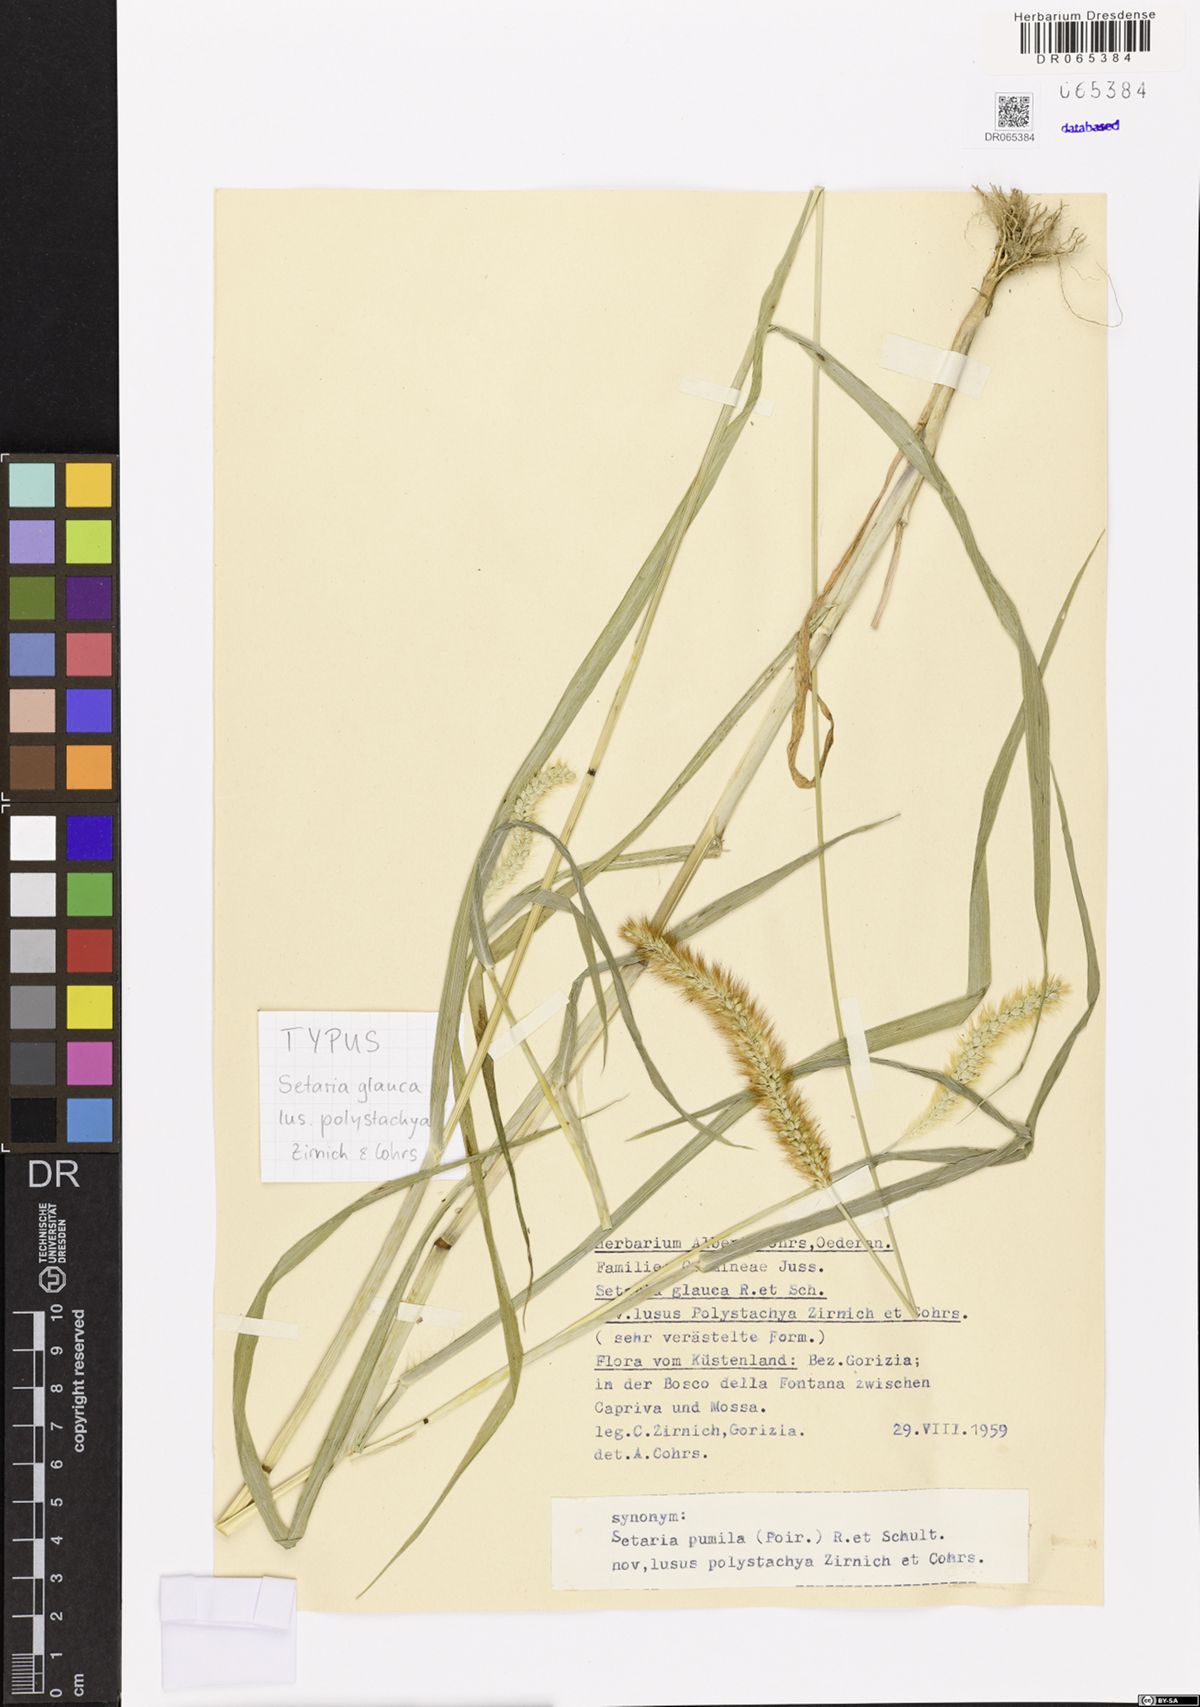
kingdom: Plantae
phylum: Tracheophyta
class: Liliopsida
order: Poales
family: Poaceae
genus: Setaria
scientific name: Setaria pumila
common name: Yellow bristle-grass
